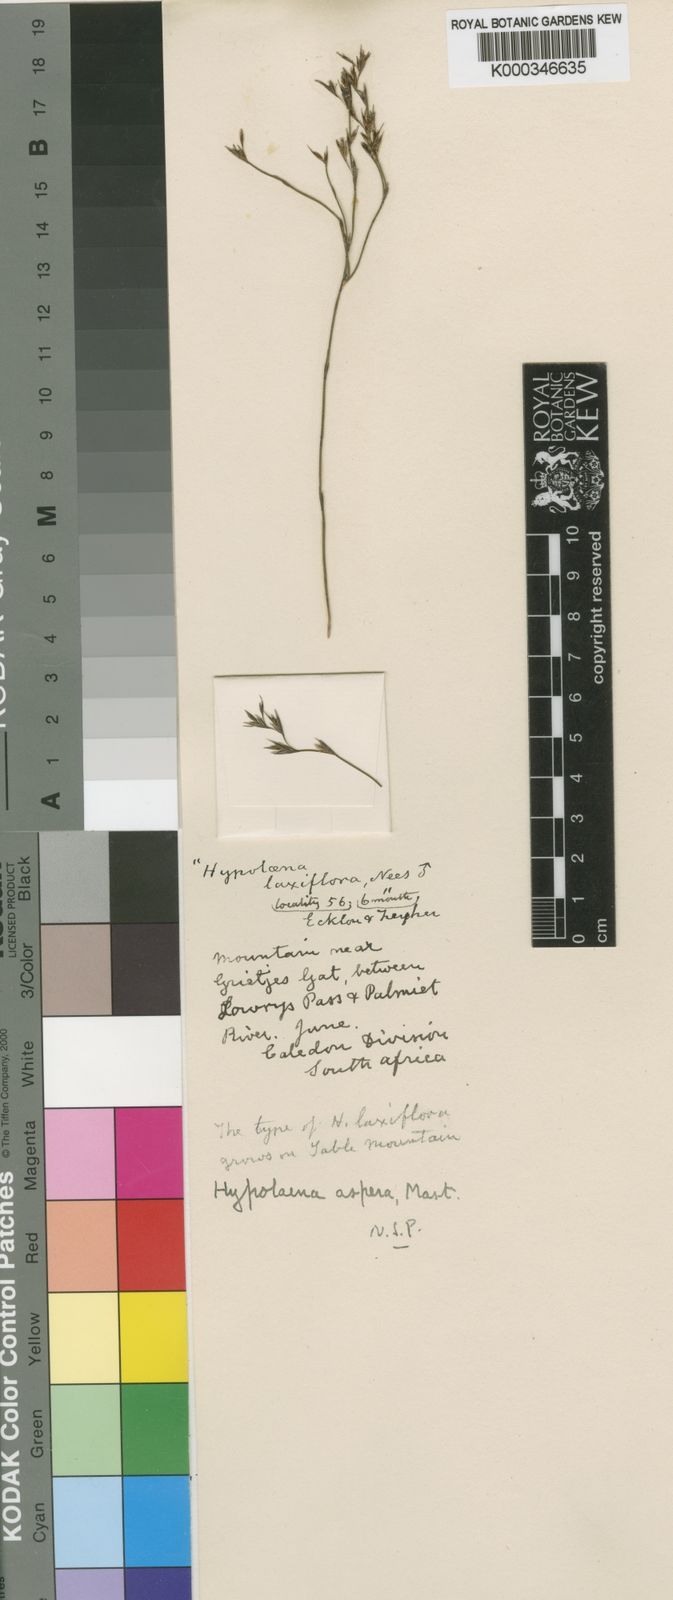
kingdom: Plantae
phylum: Tracheophyta
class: Liliopsida
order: Poales
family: Restionaceae
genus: Restio
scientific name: Restio asperus
